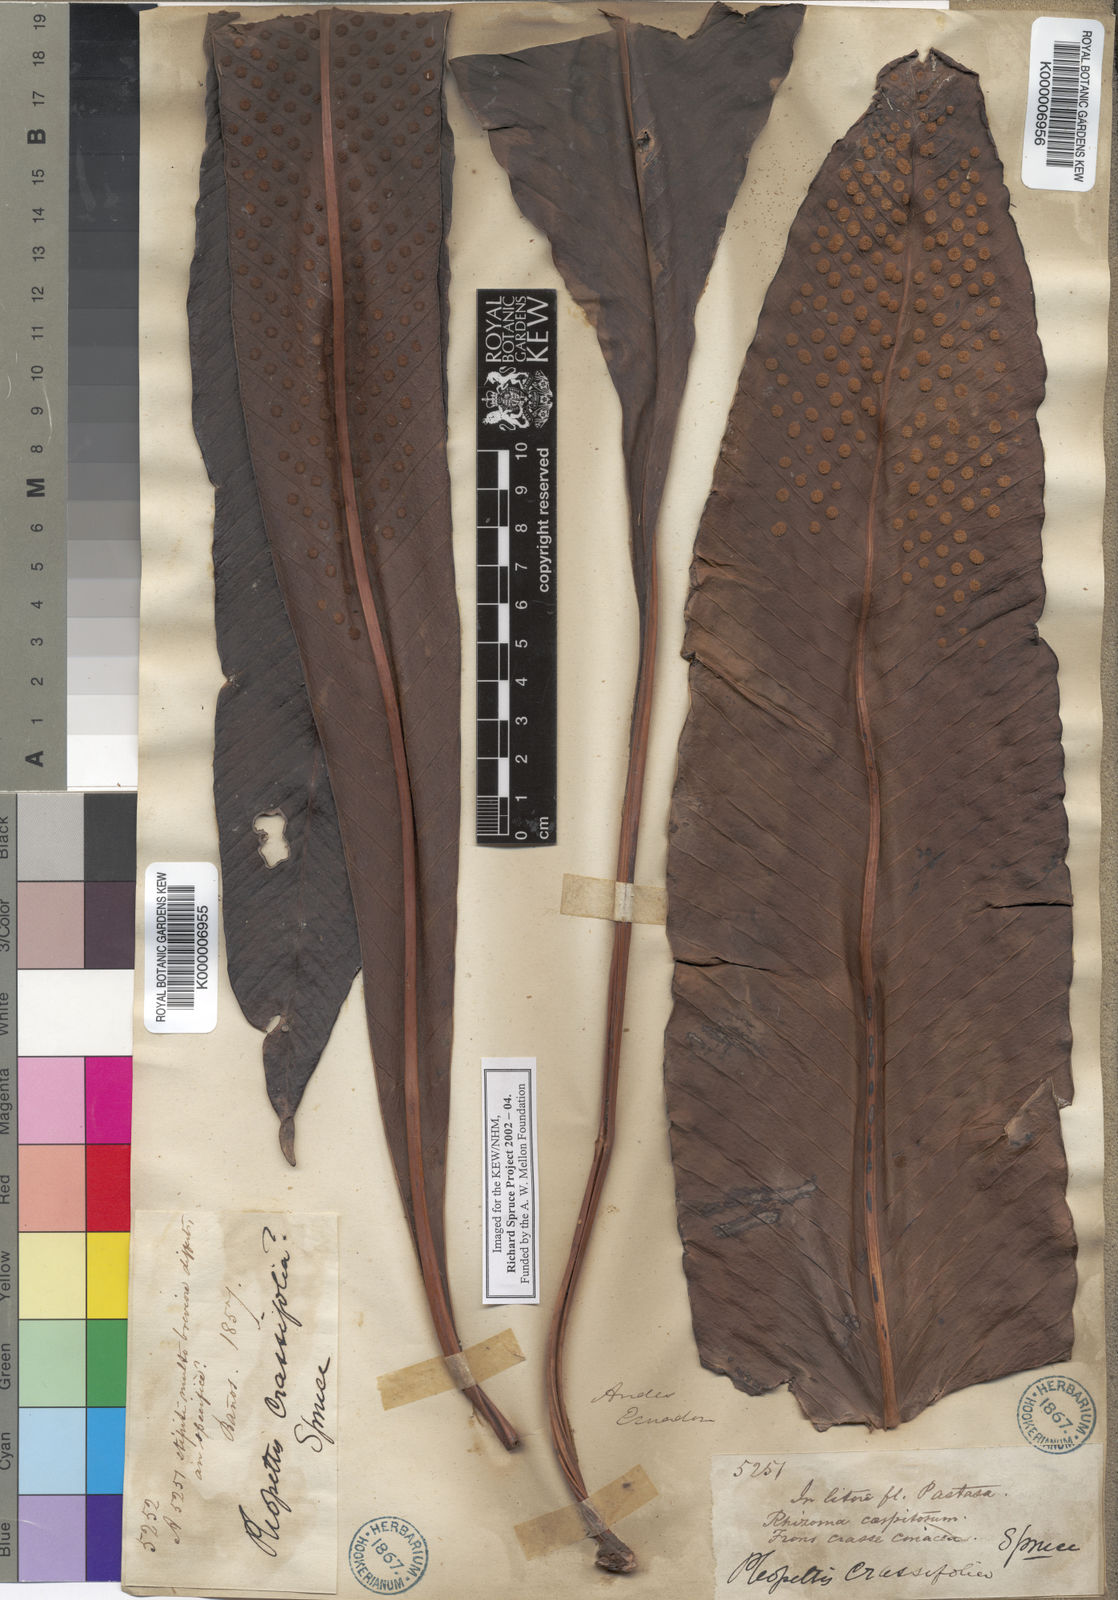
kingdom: Plantae
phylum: Tracheophyta
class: Polypodiopsida
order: Polypodiales
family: Polypodiaceae
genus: Niphidium
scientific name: Niphidium crassifolium
